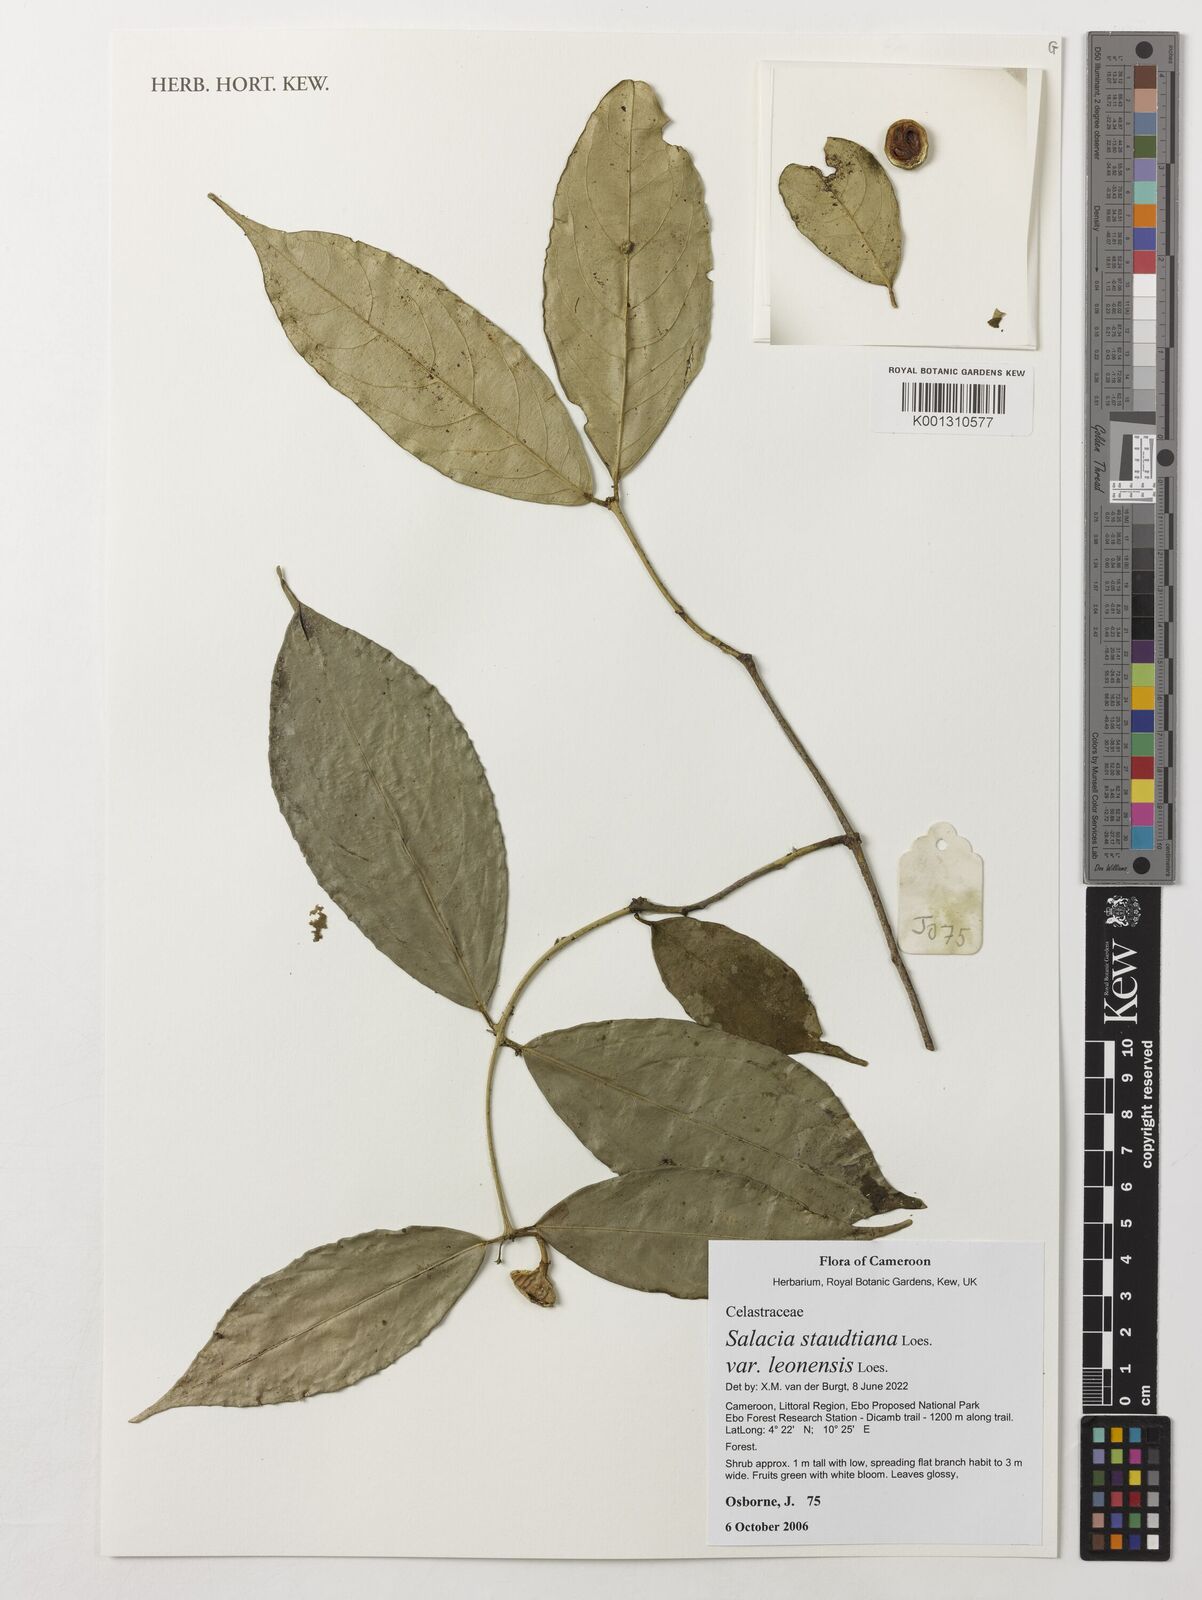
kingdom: Plantae
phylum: Tracheophyta
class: Magnoliopsida
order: Celastrales
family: Celastraceae
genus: Salacia
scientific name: Salacia staudtiana
